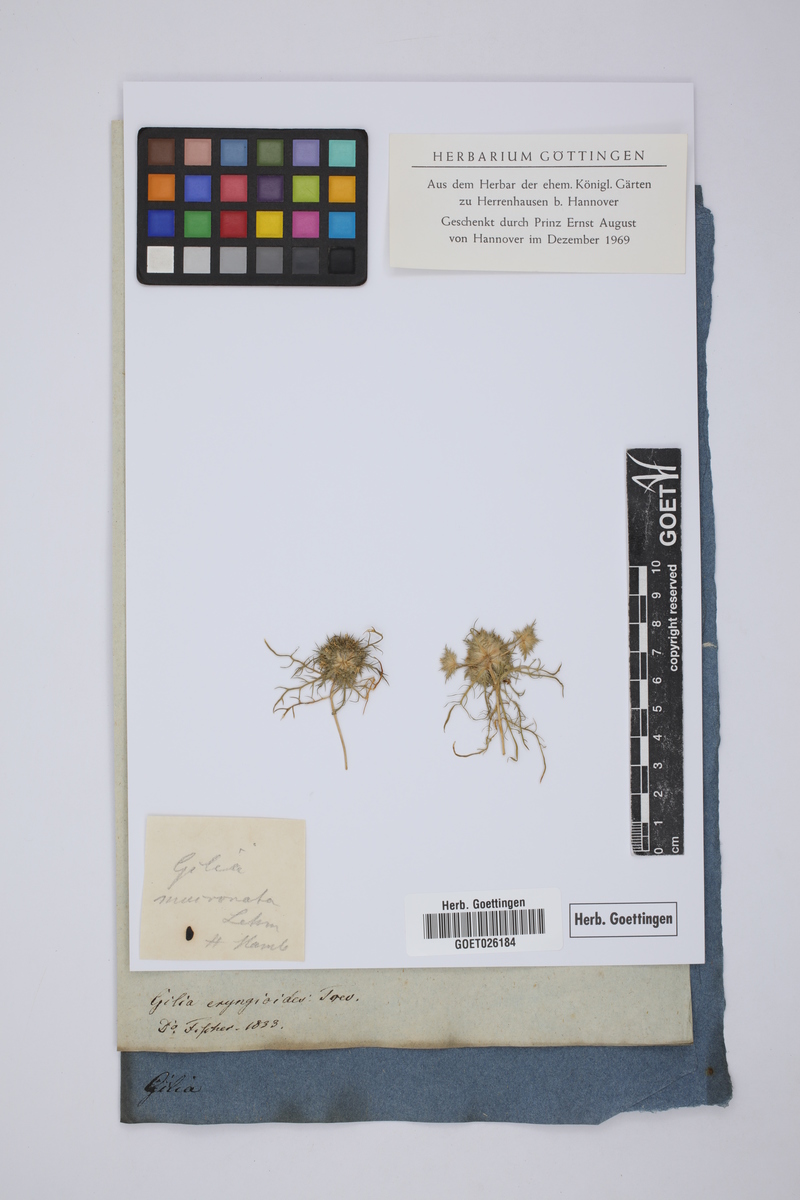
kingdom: Plantae
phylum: Tracheophyta
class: Magnoliopsida
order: Ericales
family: Polemoniaceae
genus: Navarretia
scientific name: Navarretia involucrata
